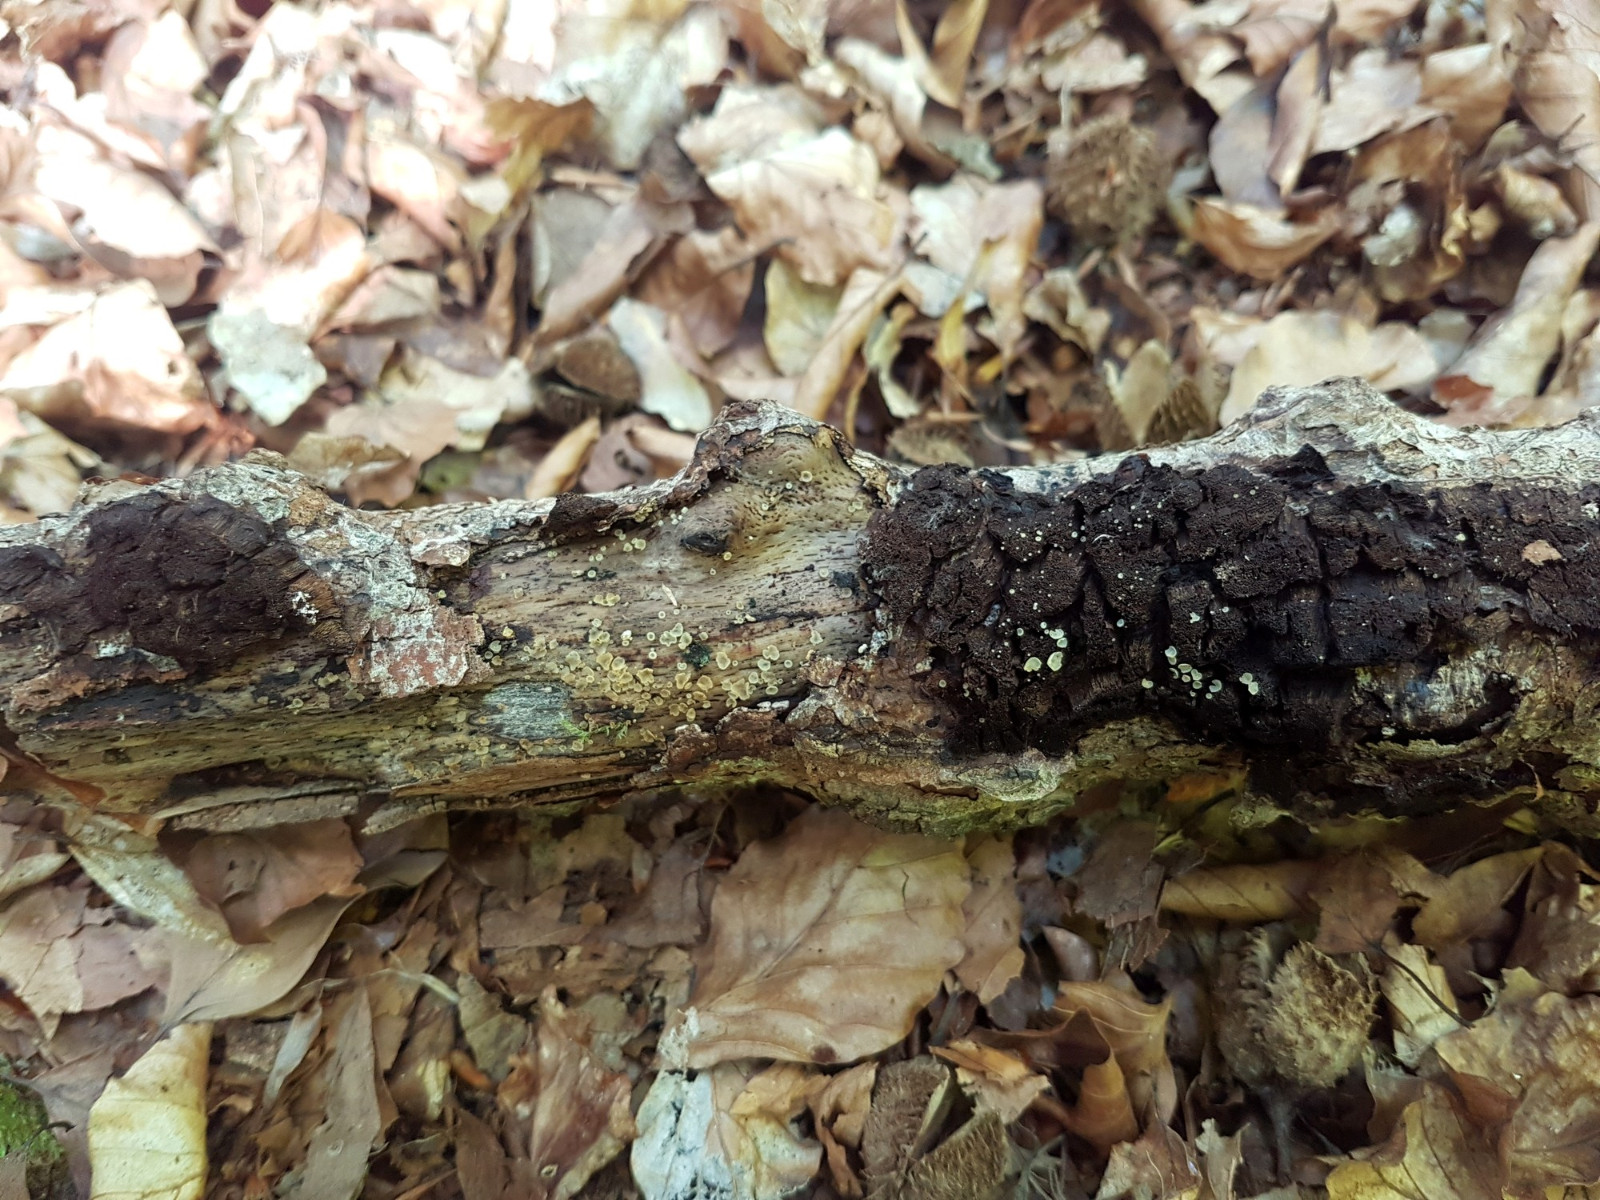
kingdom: Fungi
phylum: Ascomycota
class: Orbiliomycetes
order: Orbiliales
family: Orbiliaceae
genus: Hyalorbilia
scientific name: Hyalorbilia inflatula
